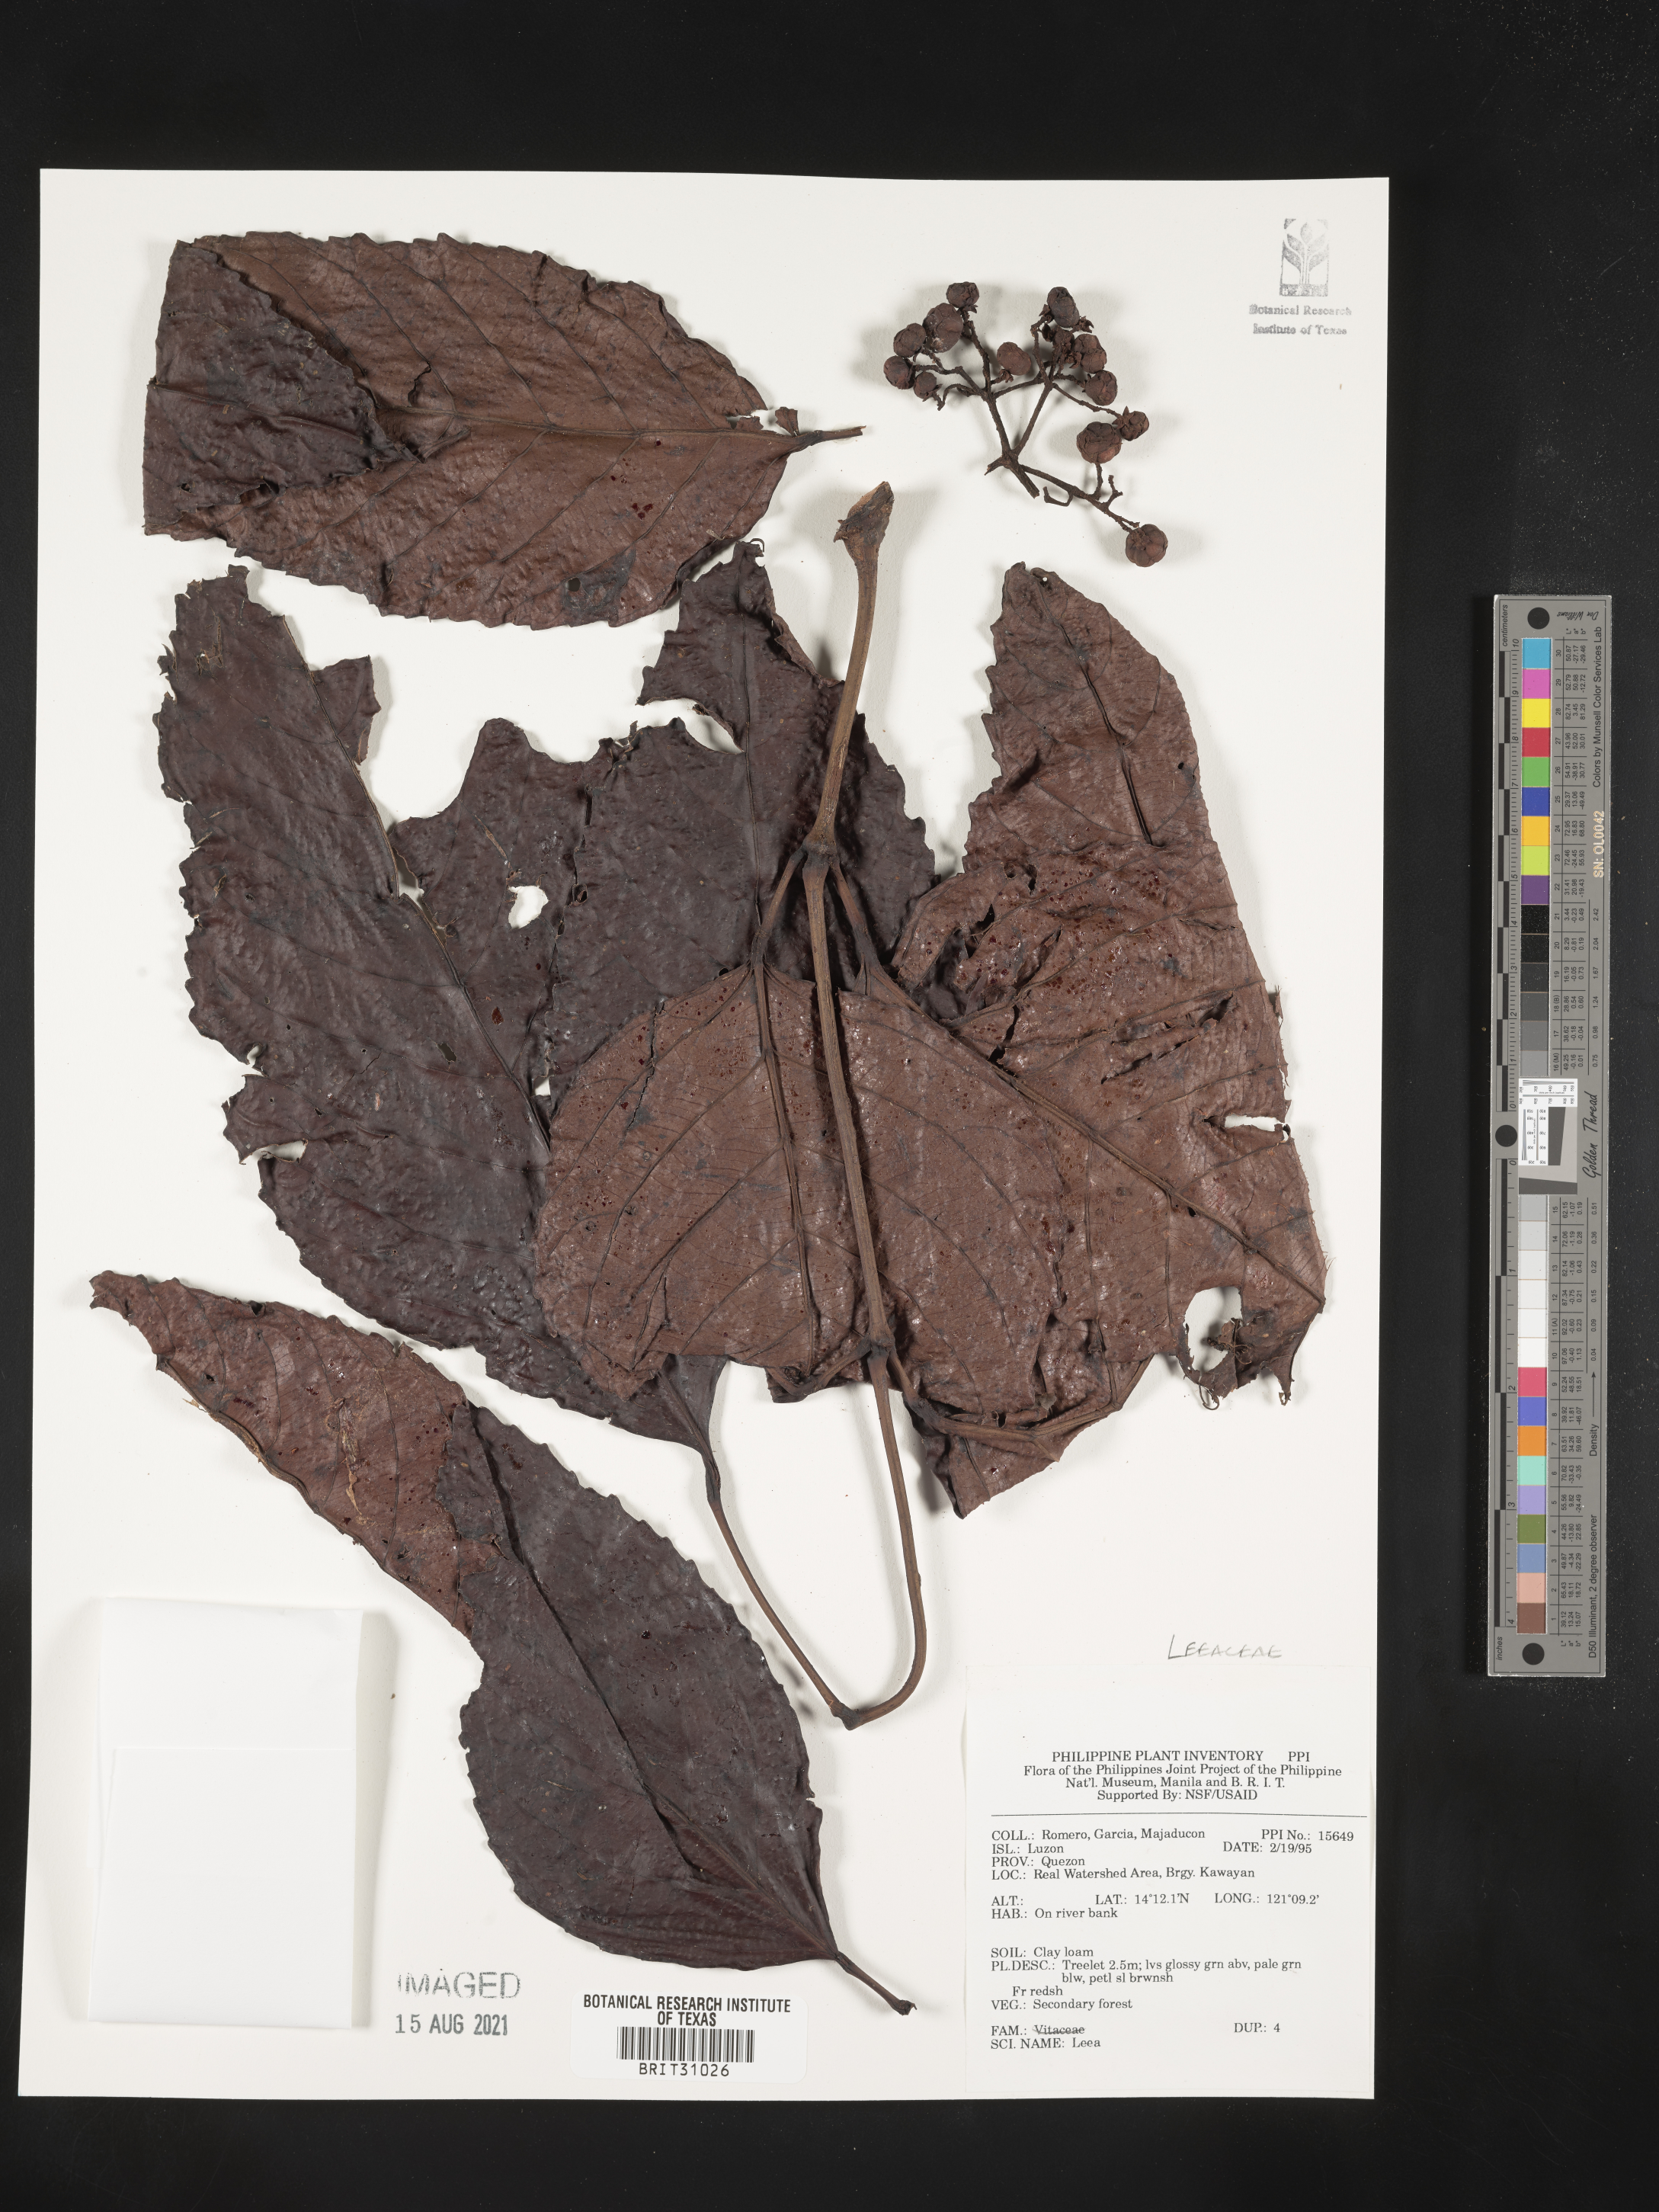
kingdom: Plantae
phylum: Tracheophyta
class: Magnoliopsida
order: Vitales
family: Vitaceae
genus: Leea
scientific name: Leea
